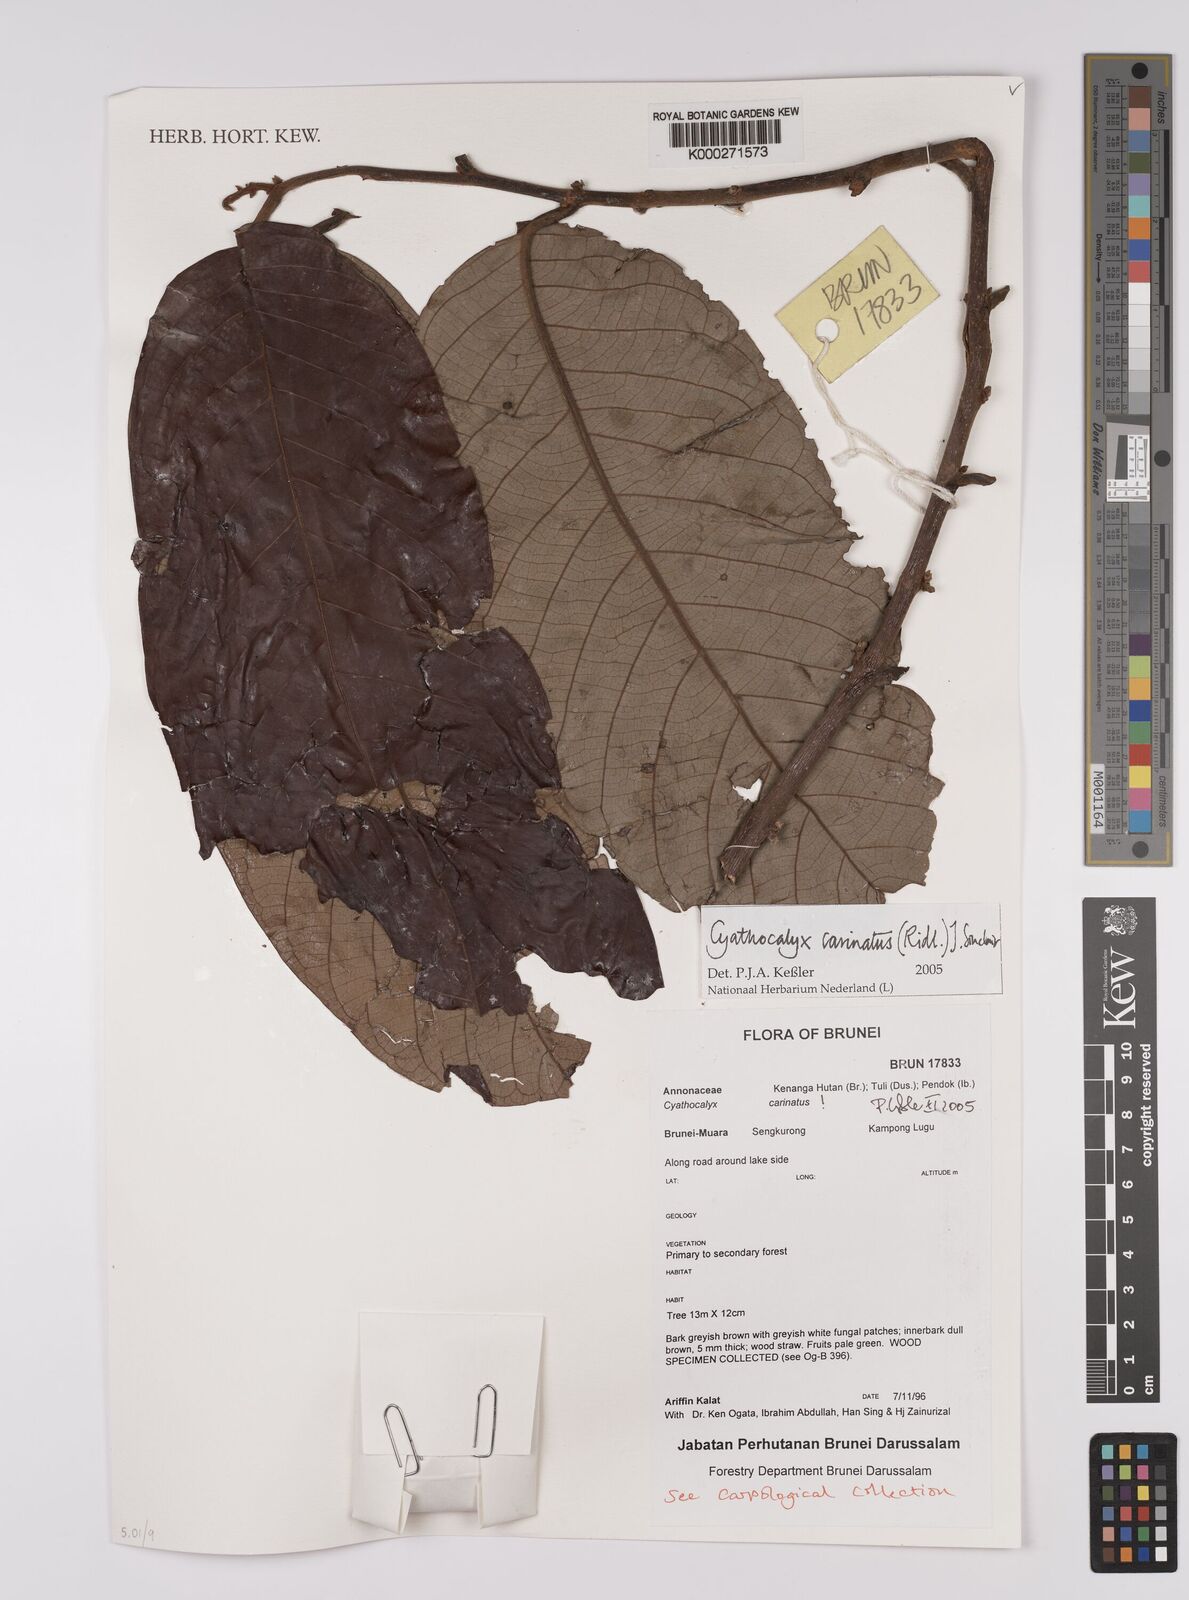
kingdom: Plantae
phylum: Tracheophyta
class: Magnoliopsida
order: Magnoliales
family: Annonaceae
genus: Drepananthus
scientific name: Drepananthus carinatus
